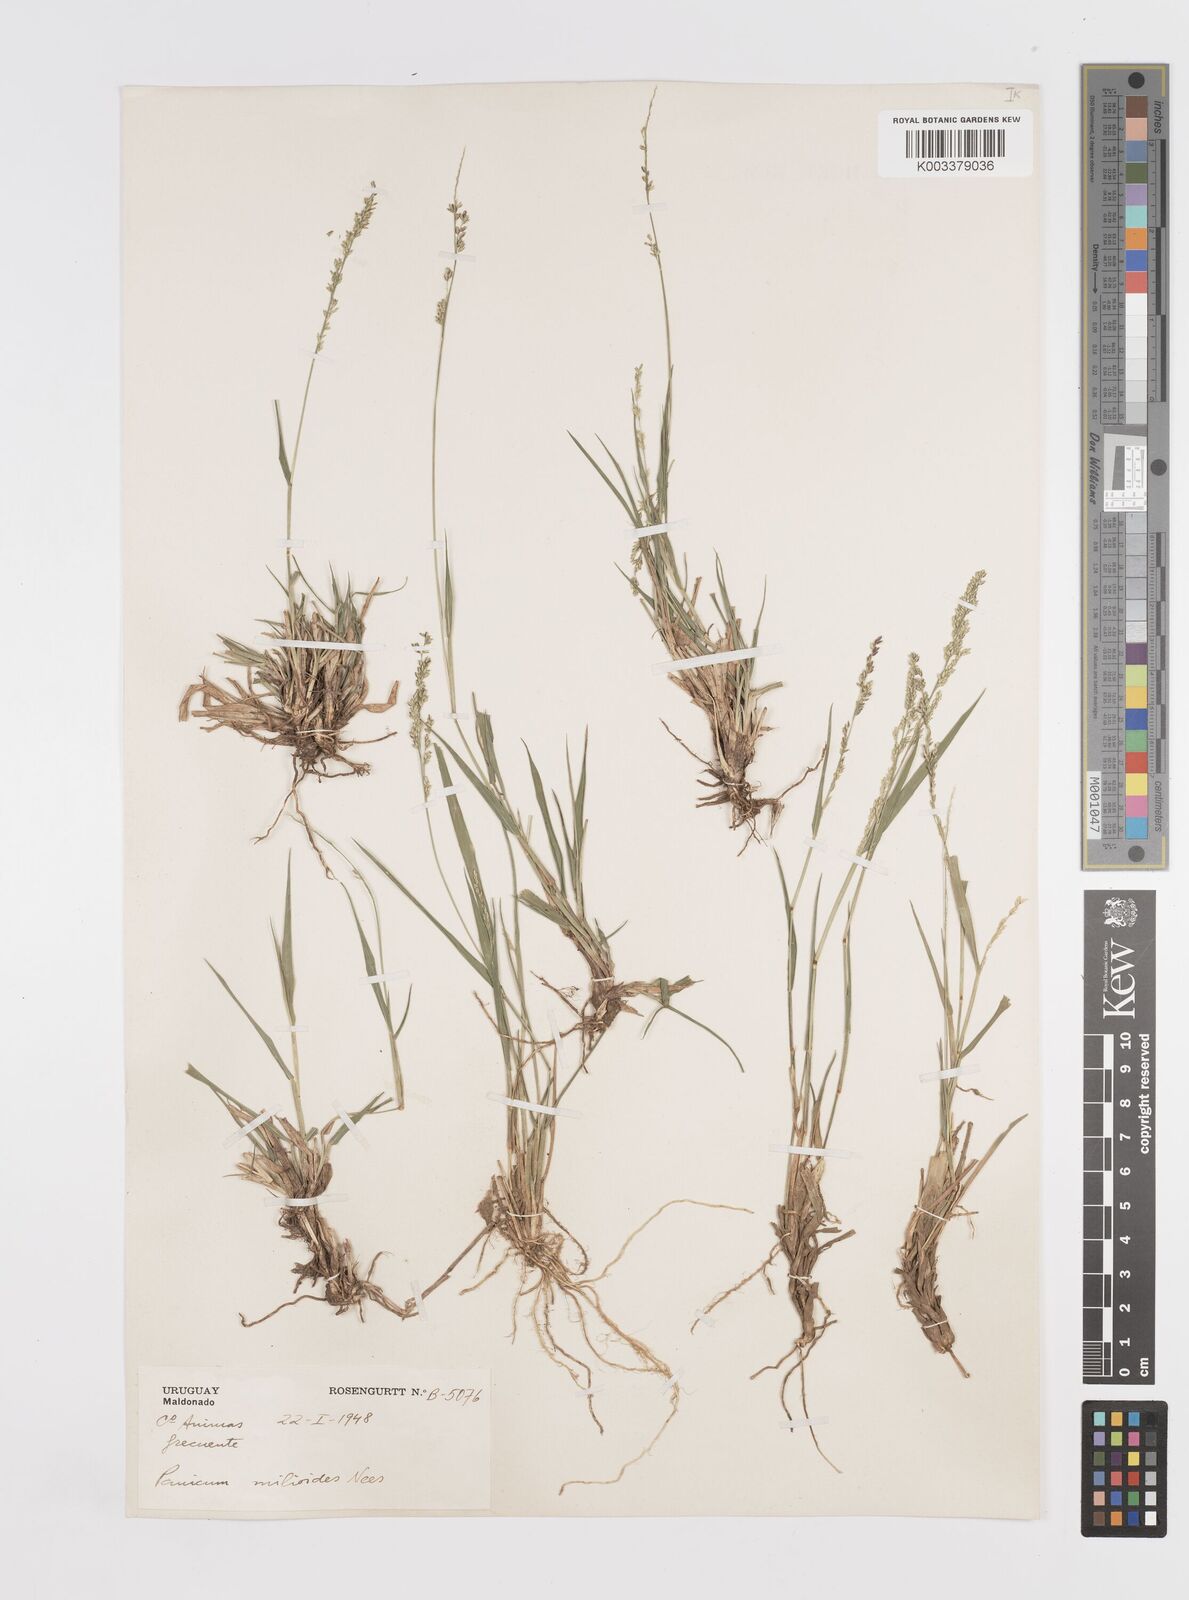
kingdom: Plantae
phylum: Tracheophyta
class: Liliopsida
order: Poales
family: Poaceae
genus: Steinchisma
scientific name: Steinchisma hians
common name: Gaping panic grass
